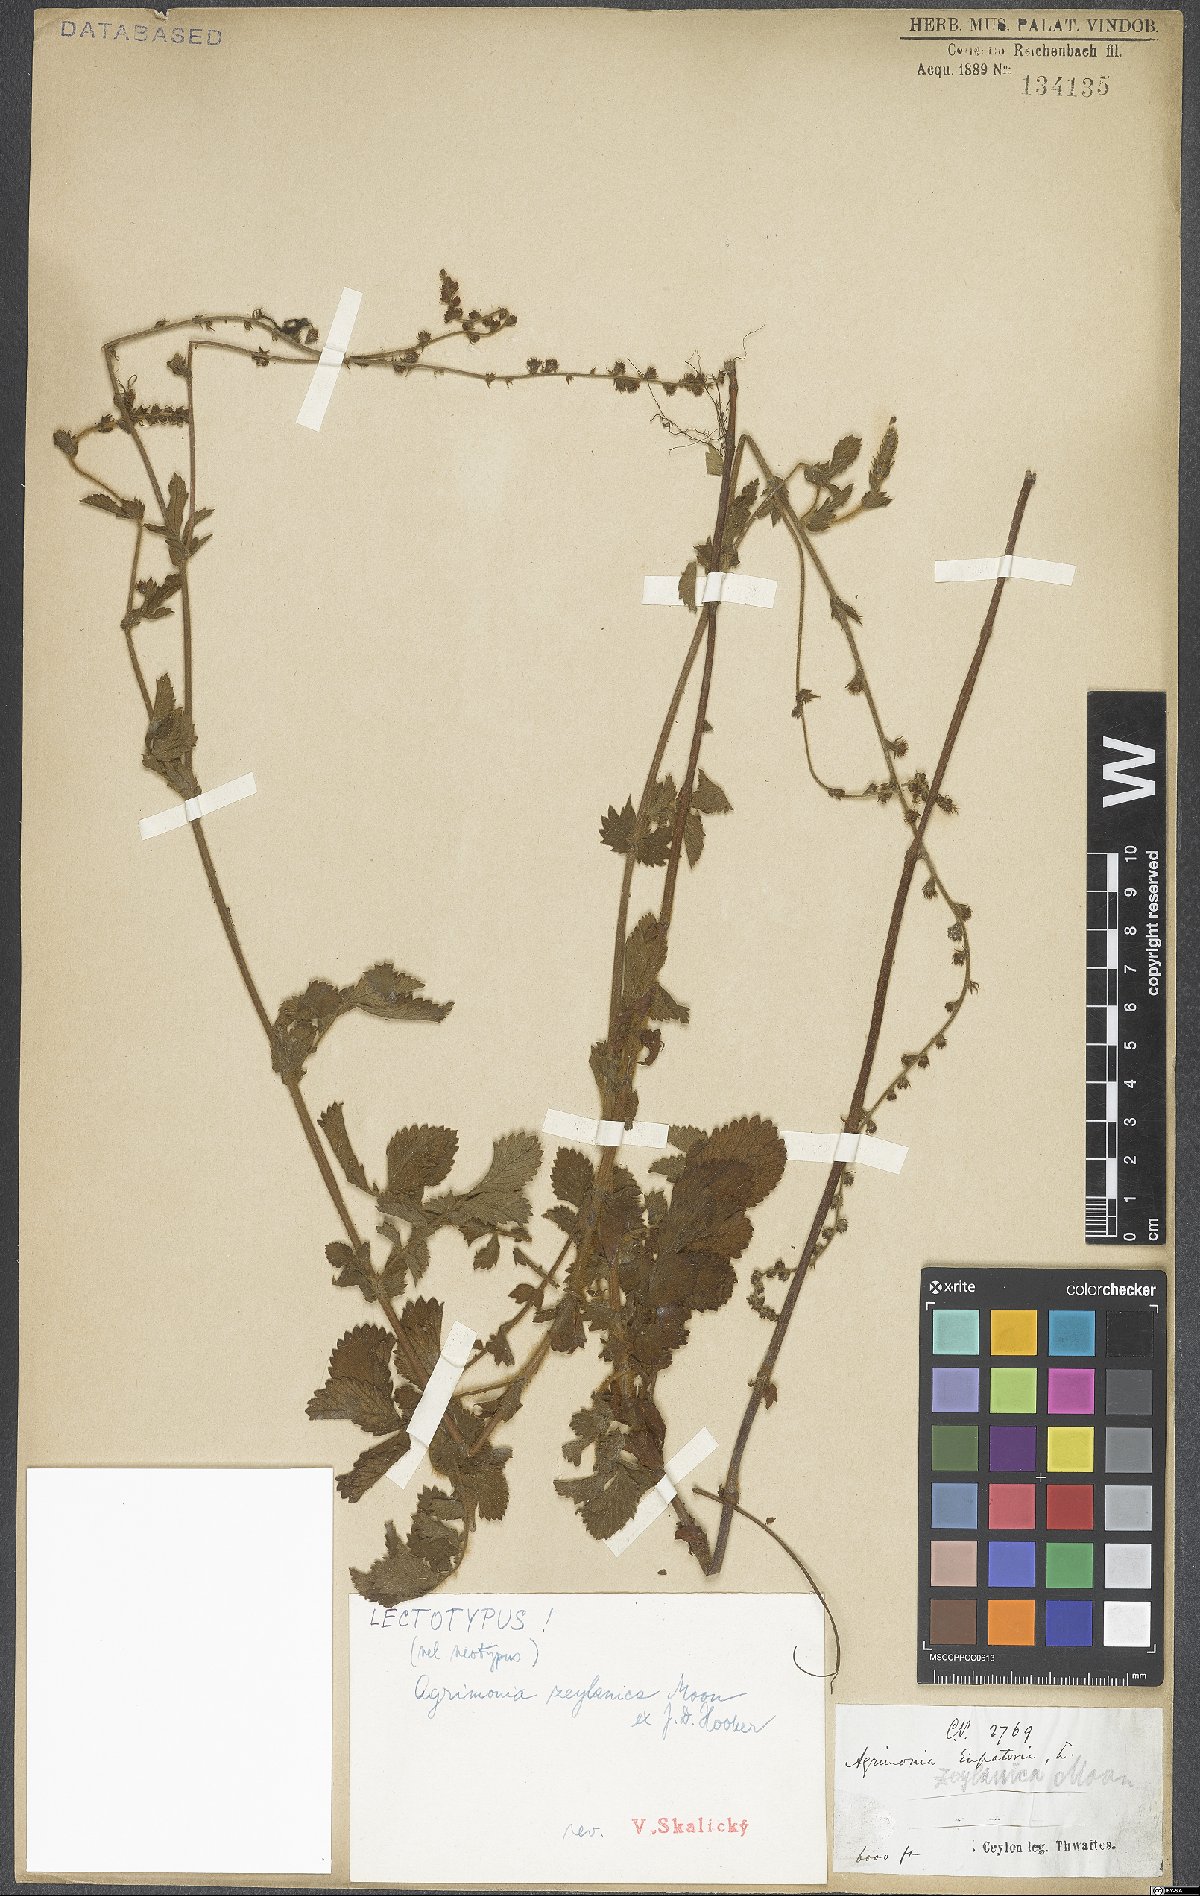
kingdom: Plantae
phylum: Tracheophyta
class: Magnoliopsida
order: Rosales
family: Rosaceae
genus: Agrimonia
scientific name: Agrimonia zeylanica
